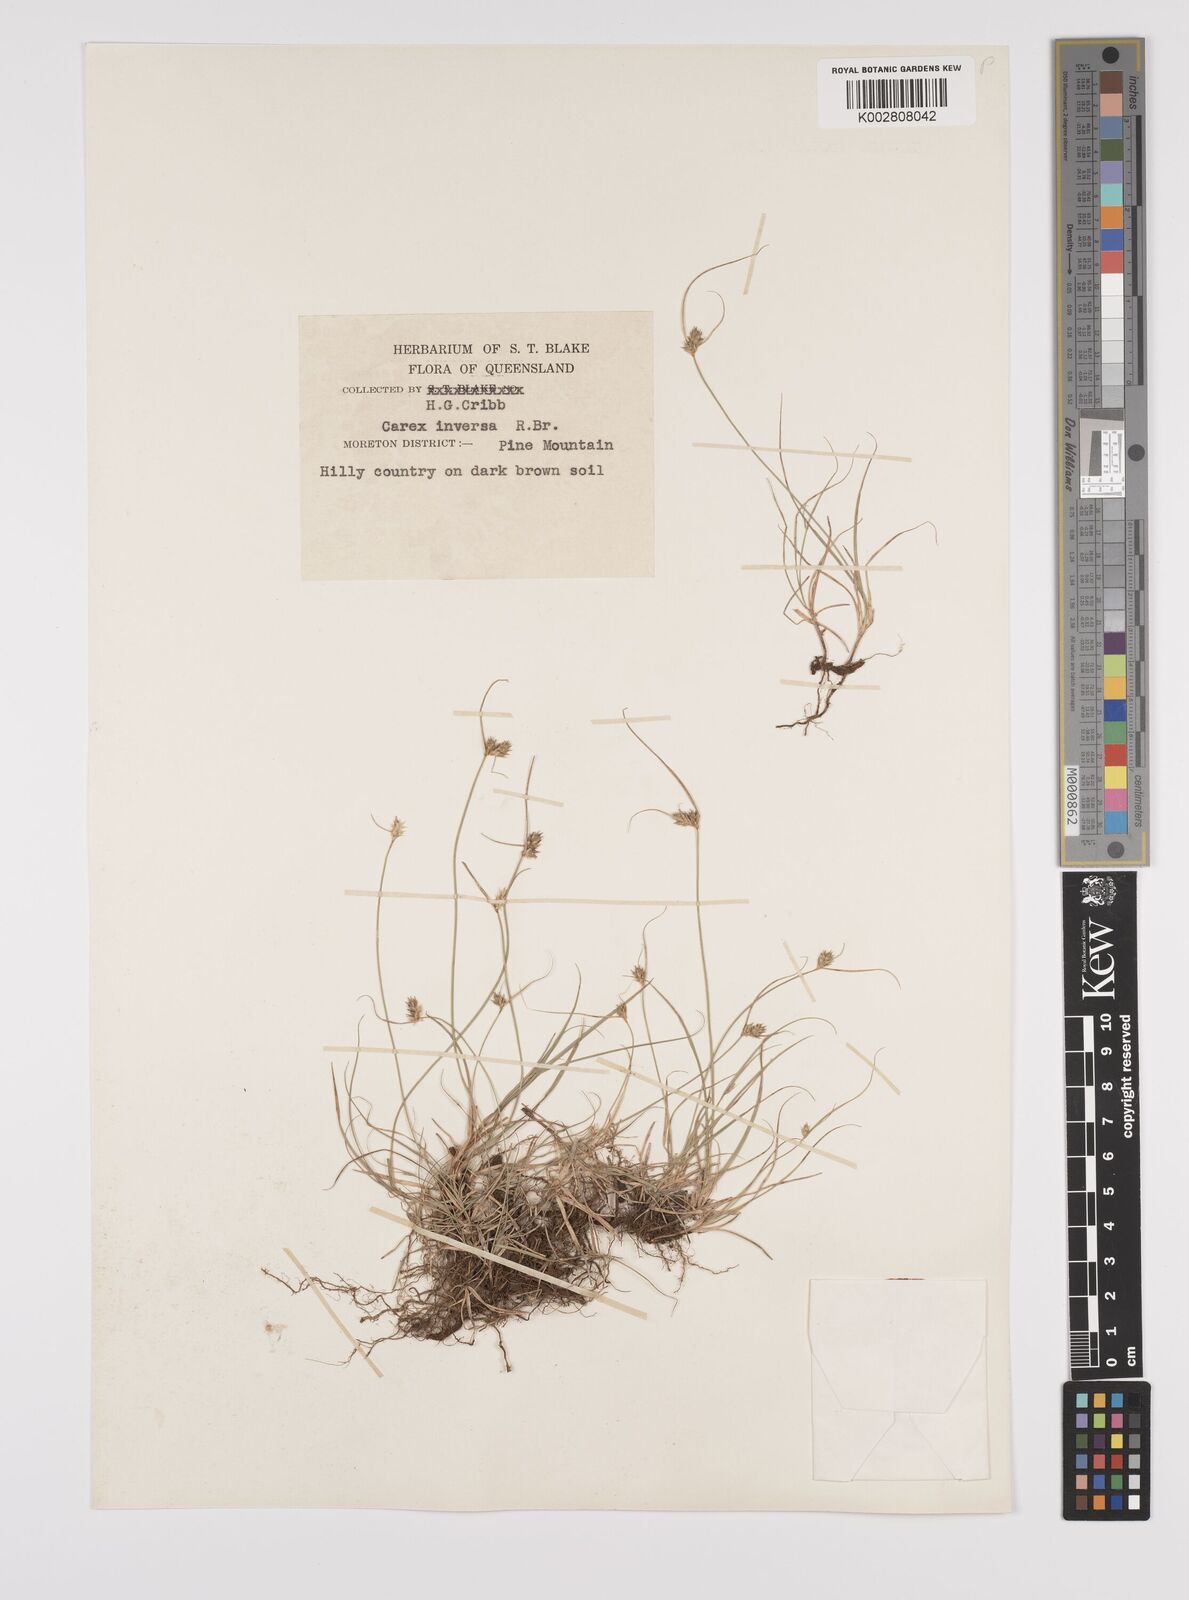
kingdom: Plantae
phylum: Tracheophyta
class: Liliopsida
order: Poales
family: Cyperaceae
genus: Carex
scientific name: Carex inversa
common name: Knob sedge
